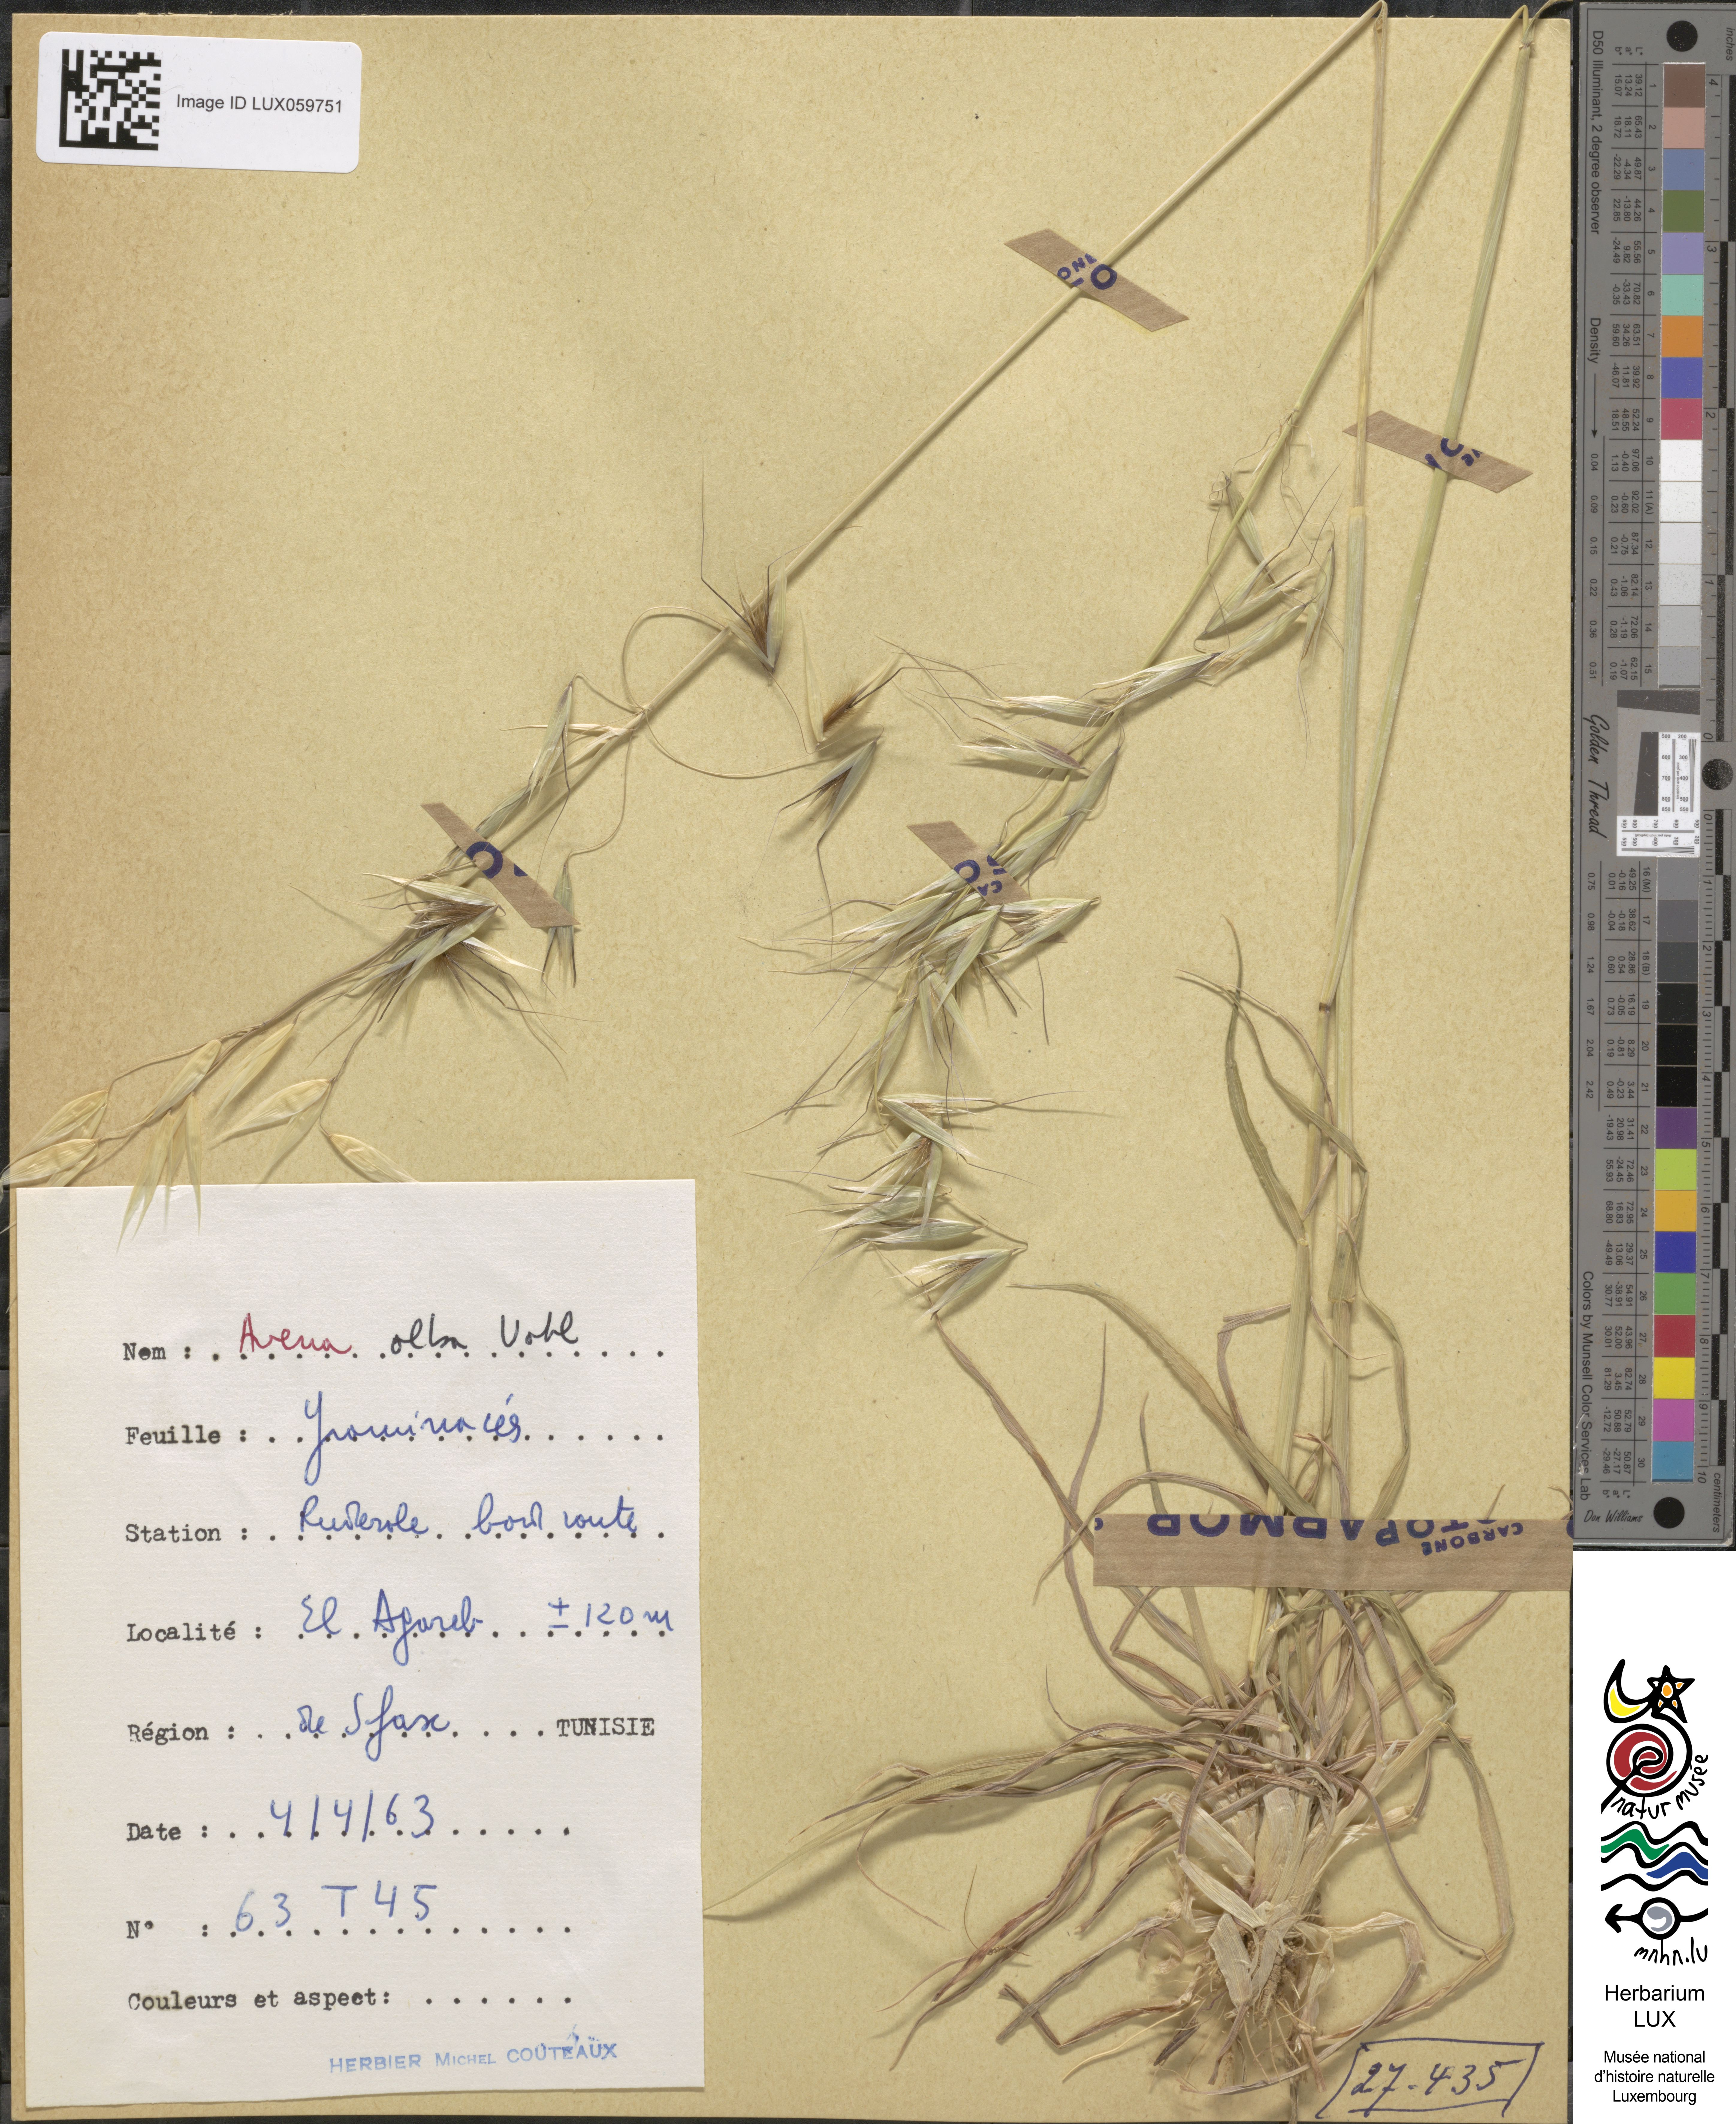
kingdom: Plantae
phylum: Tracheophyta
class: Liliopsida
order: Poales
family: Poaceae
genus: Arrhenatherum
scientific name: Arrhenatherum album
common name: Tall oat grass
